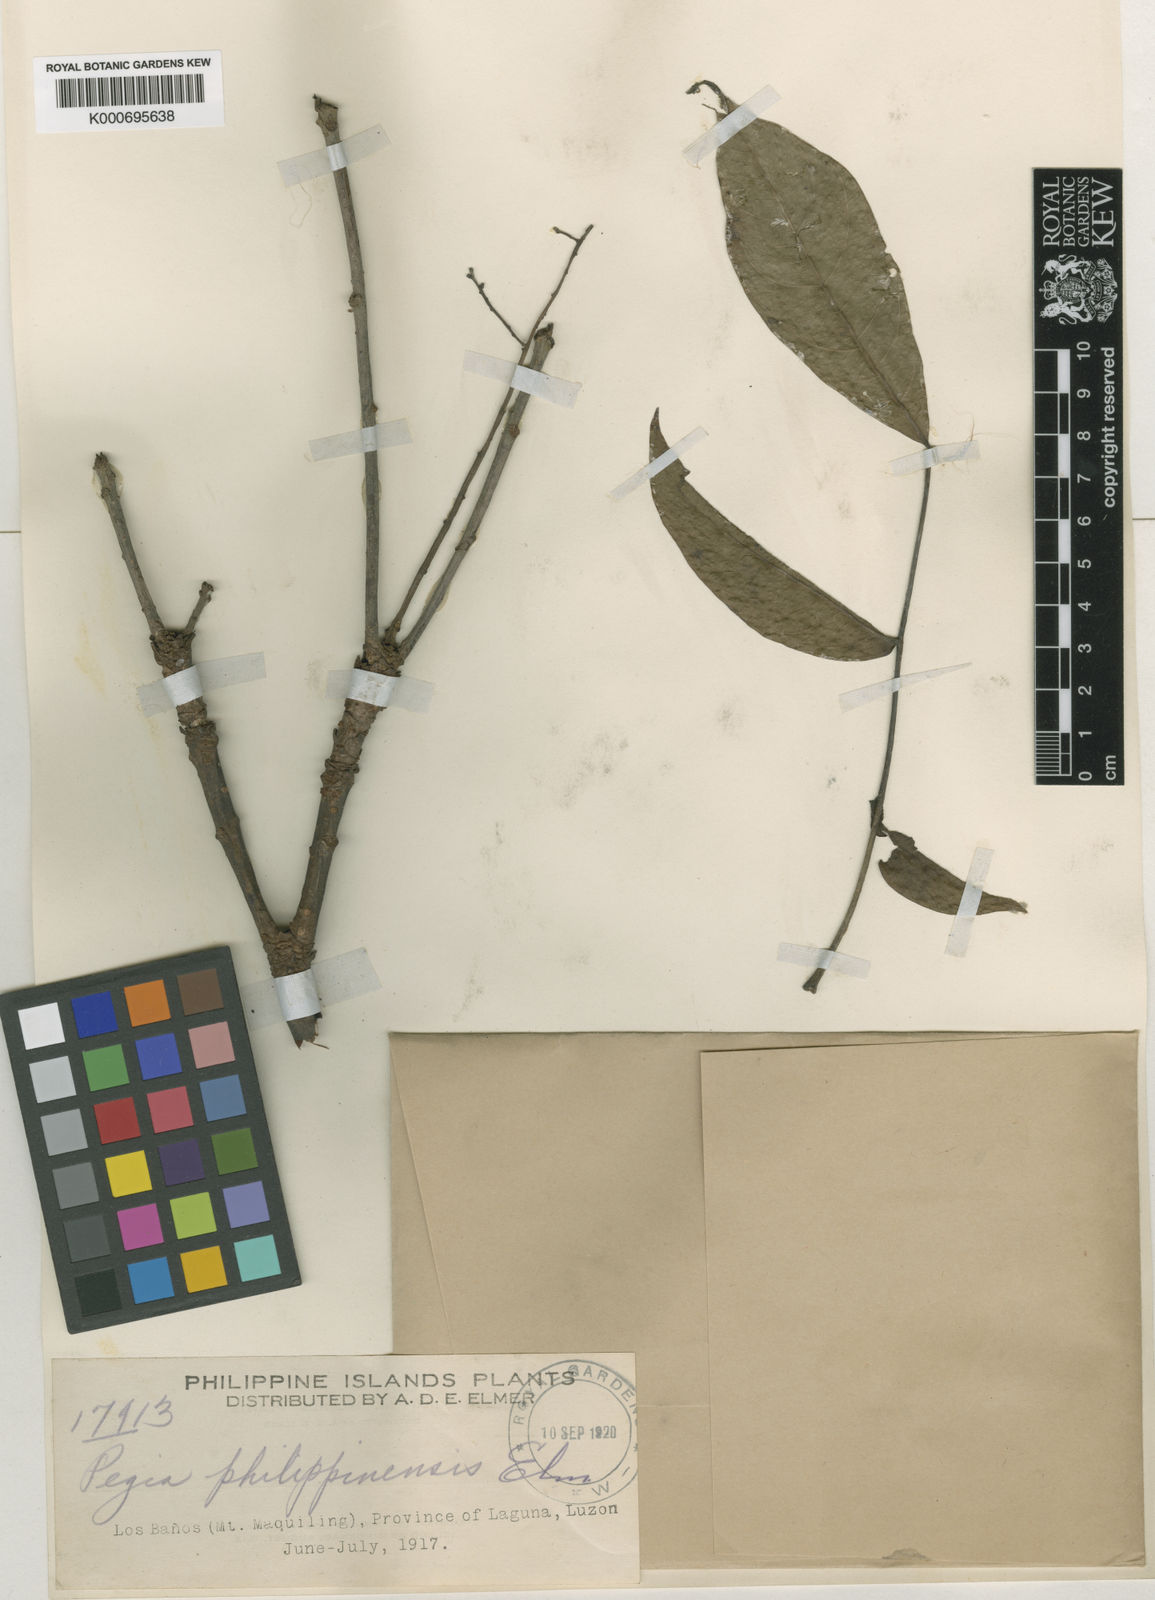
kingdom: Plantae
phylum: Tracheophyta
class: Magnoliopsida
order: Sapindales
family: Anacardiaceae
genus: Spondias
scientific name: Spondias philippinensis
